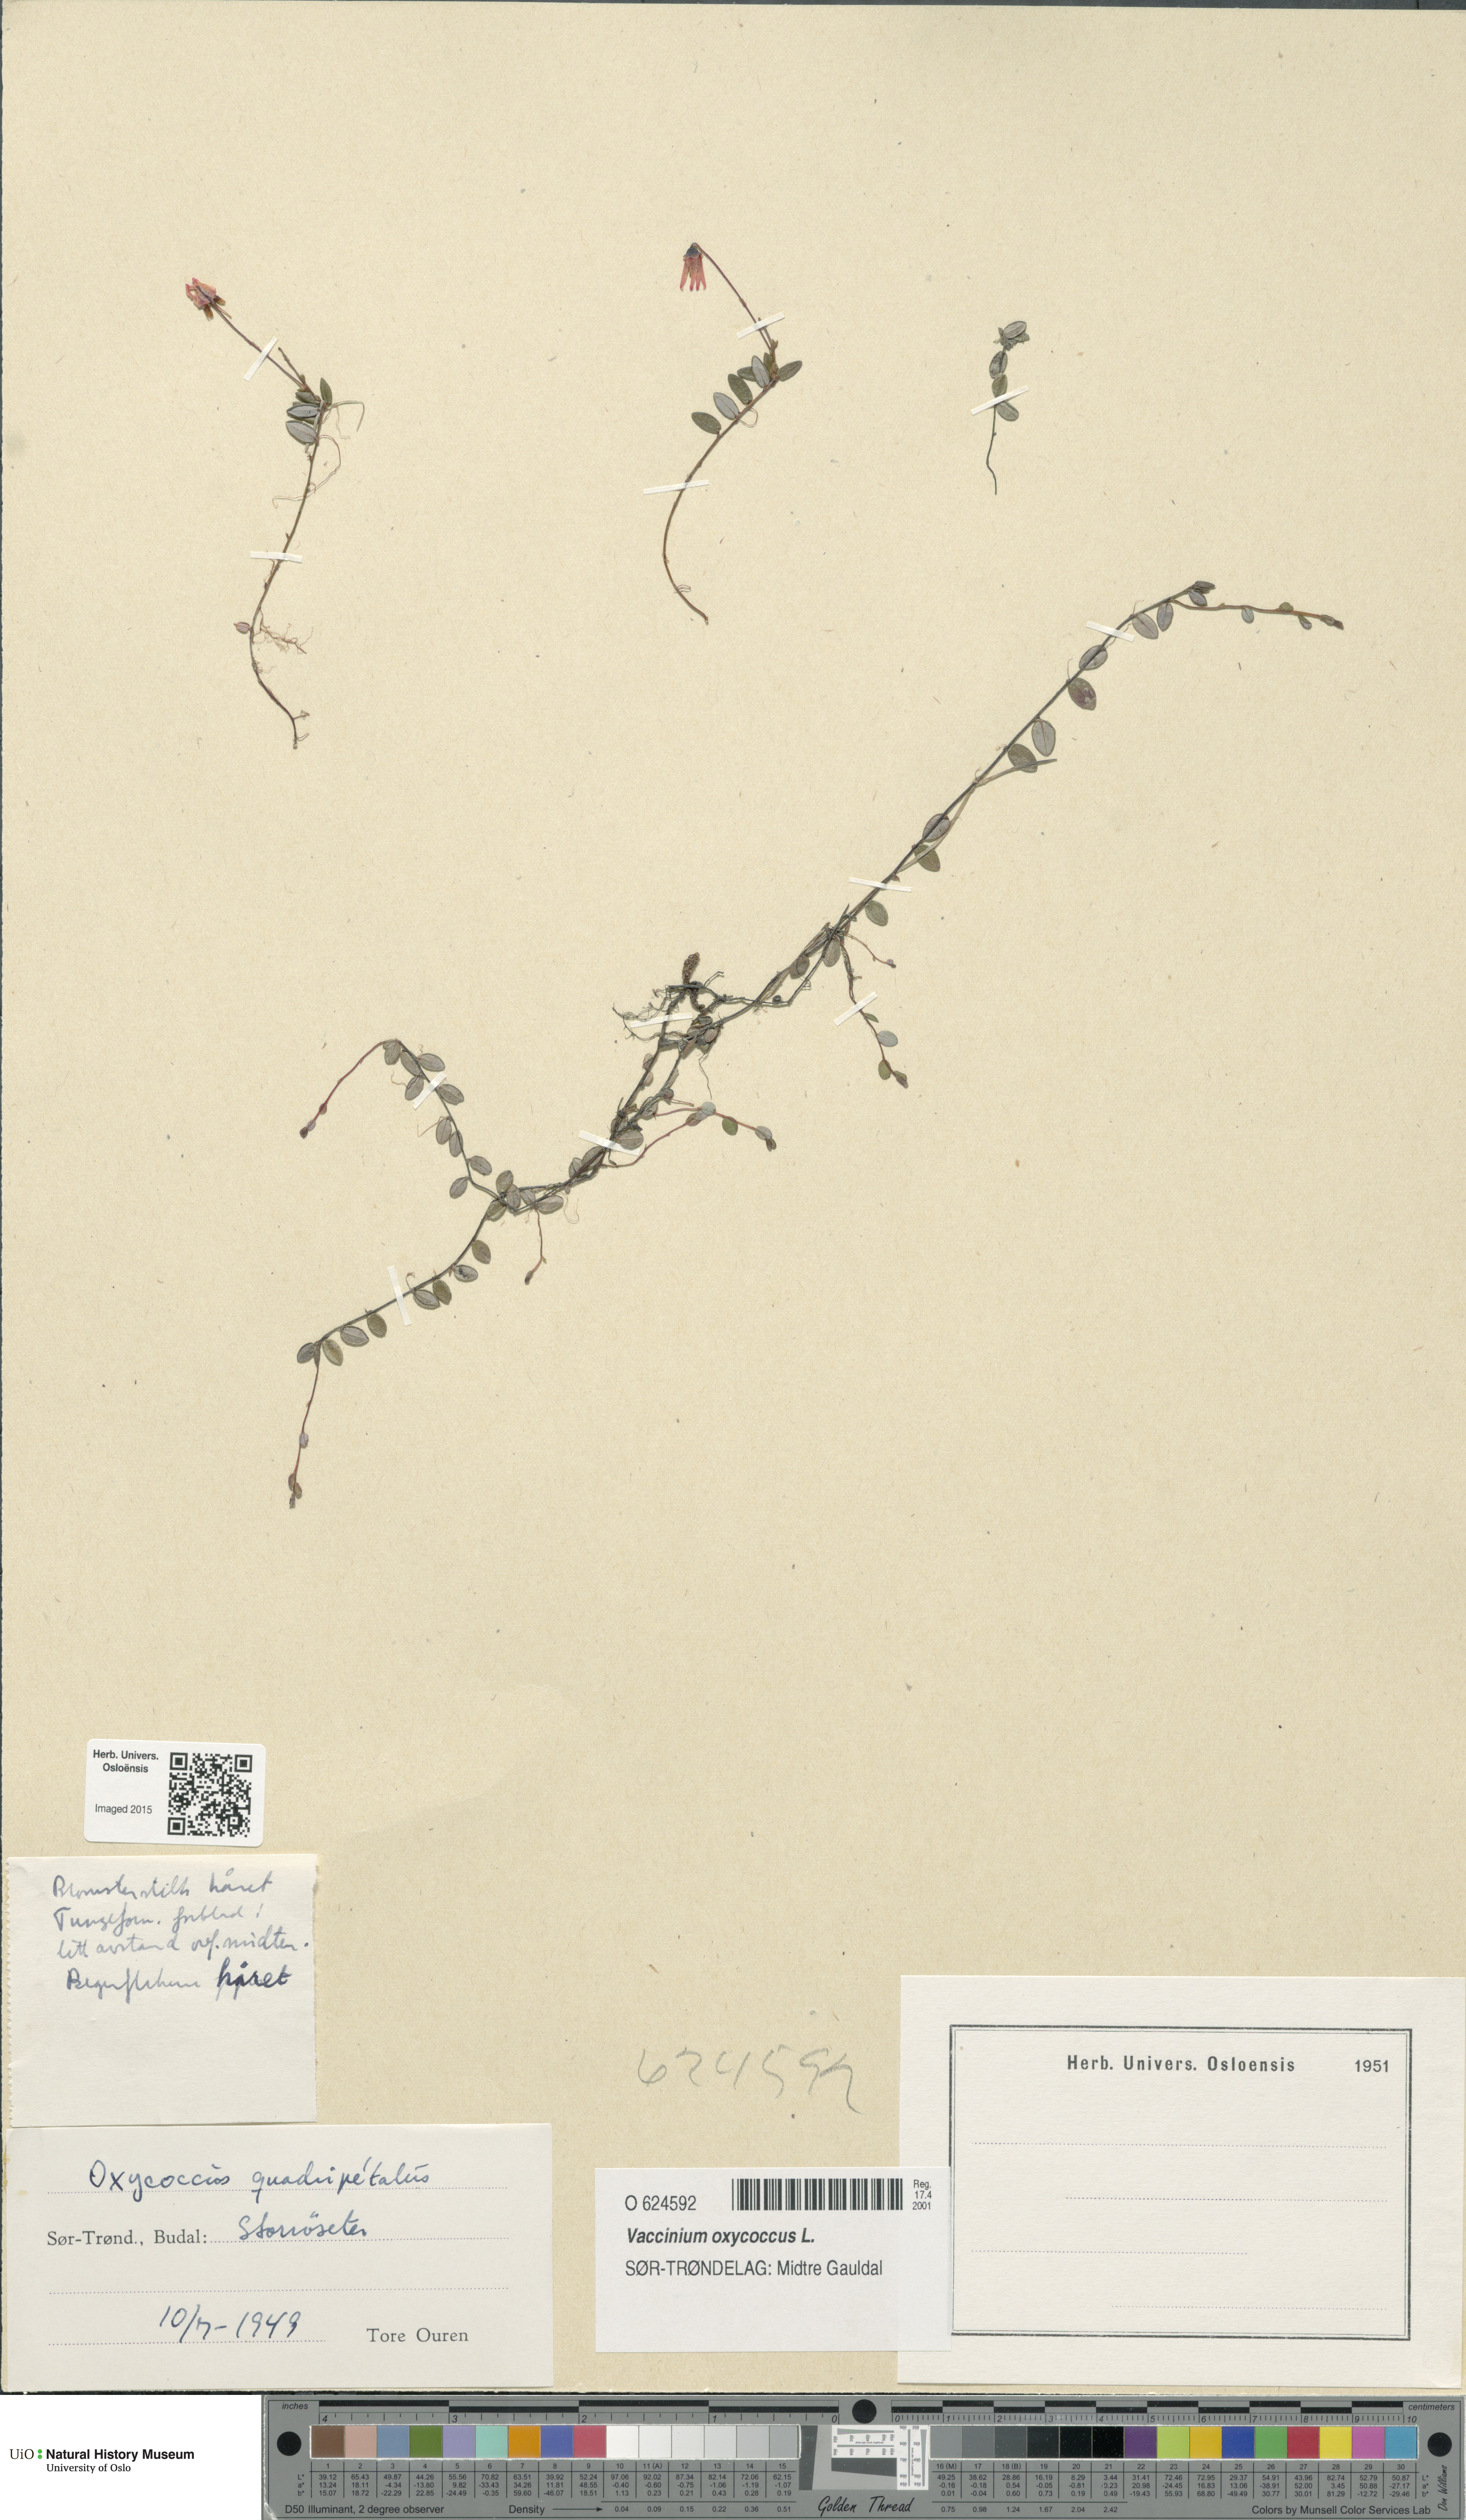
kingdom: Plantae
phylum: Tracheophyta
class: Magnoliopsida
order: Ericales
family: Ericaceae
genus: Vaccinium
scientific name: Vaccinium oxycoccos
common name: Cranberry
